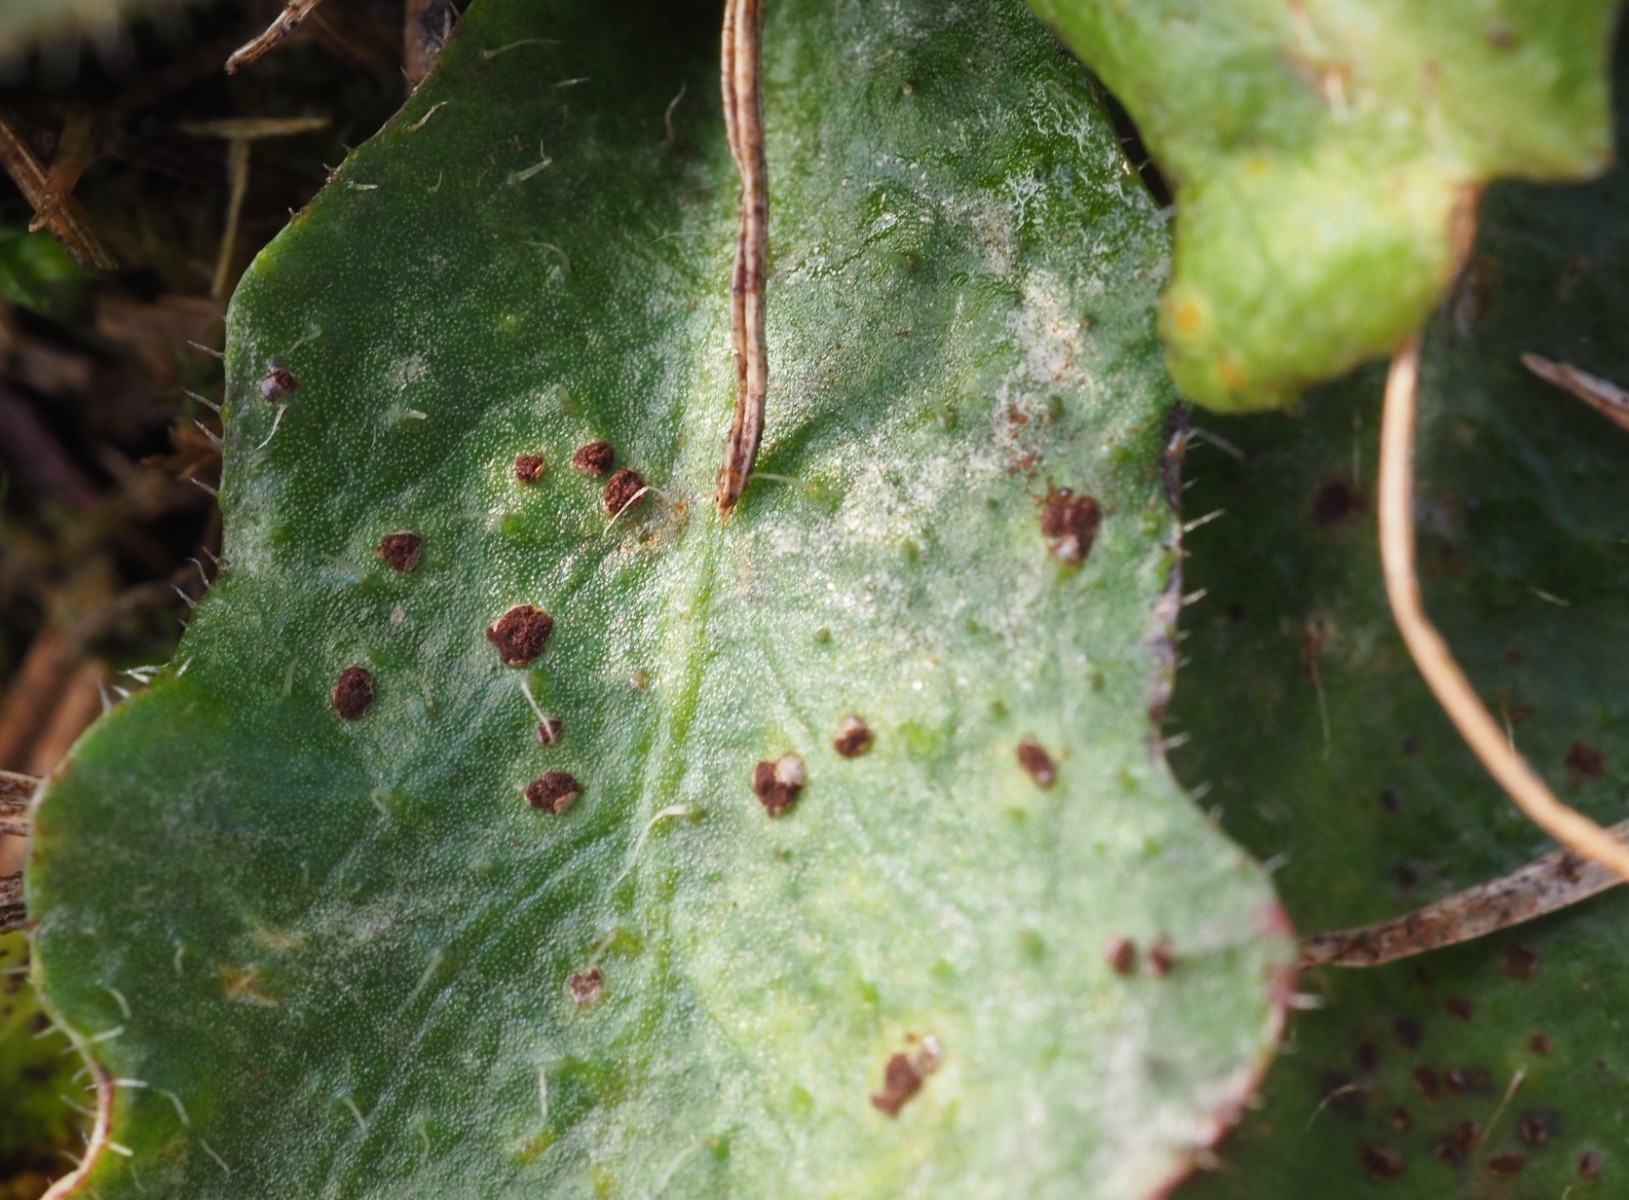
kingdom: Fungi
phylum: Basidiomycota
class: Pucciniomycetes
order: Pucciniales
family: Pucciniaceae
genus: Puccinia
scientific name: Puccinia hieracii
